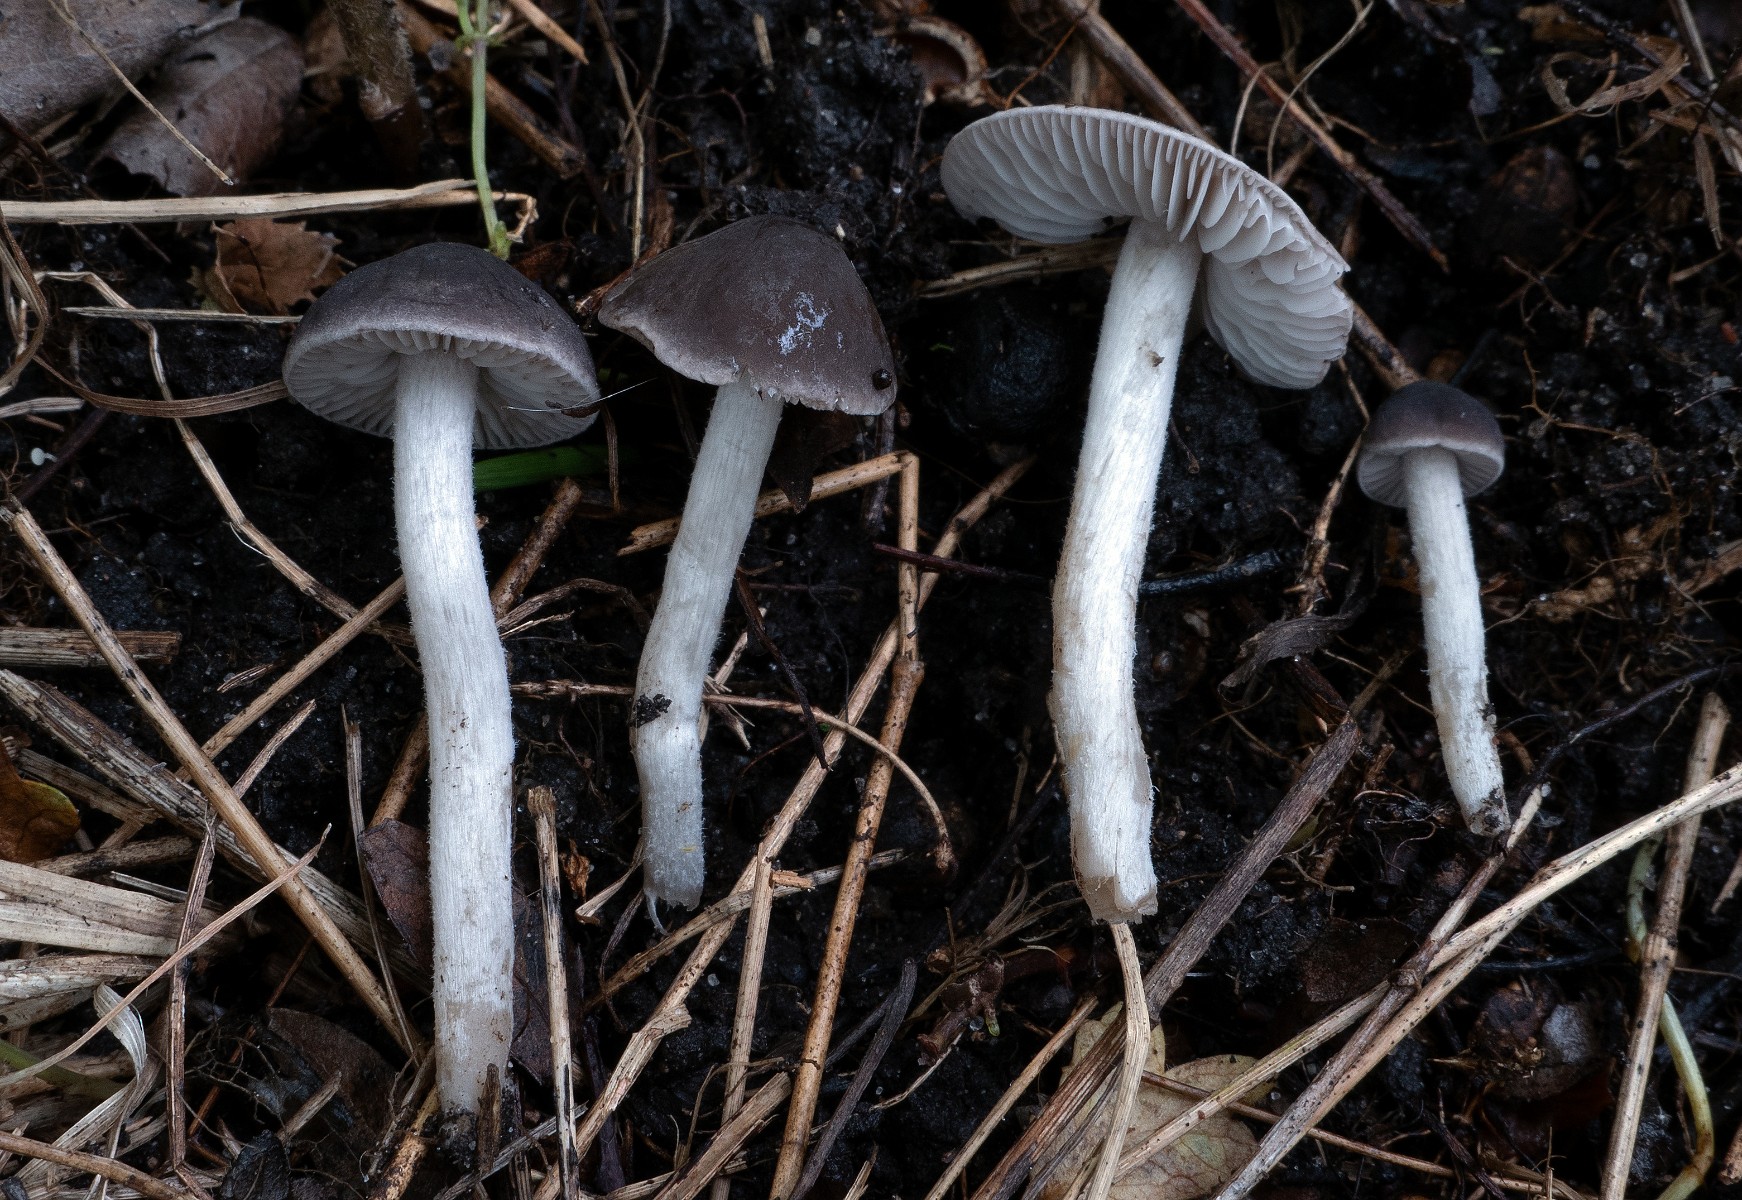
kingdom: Fungi
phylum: Basidiomycota
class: Agaricomycetes
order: Agaricales
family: Tricholomataceae
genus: Dermoloma
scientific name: Dermoloma cuneifolium
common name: eng-nonnehat
